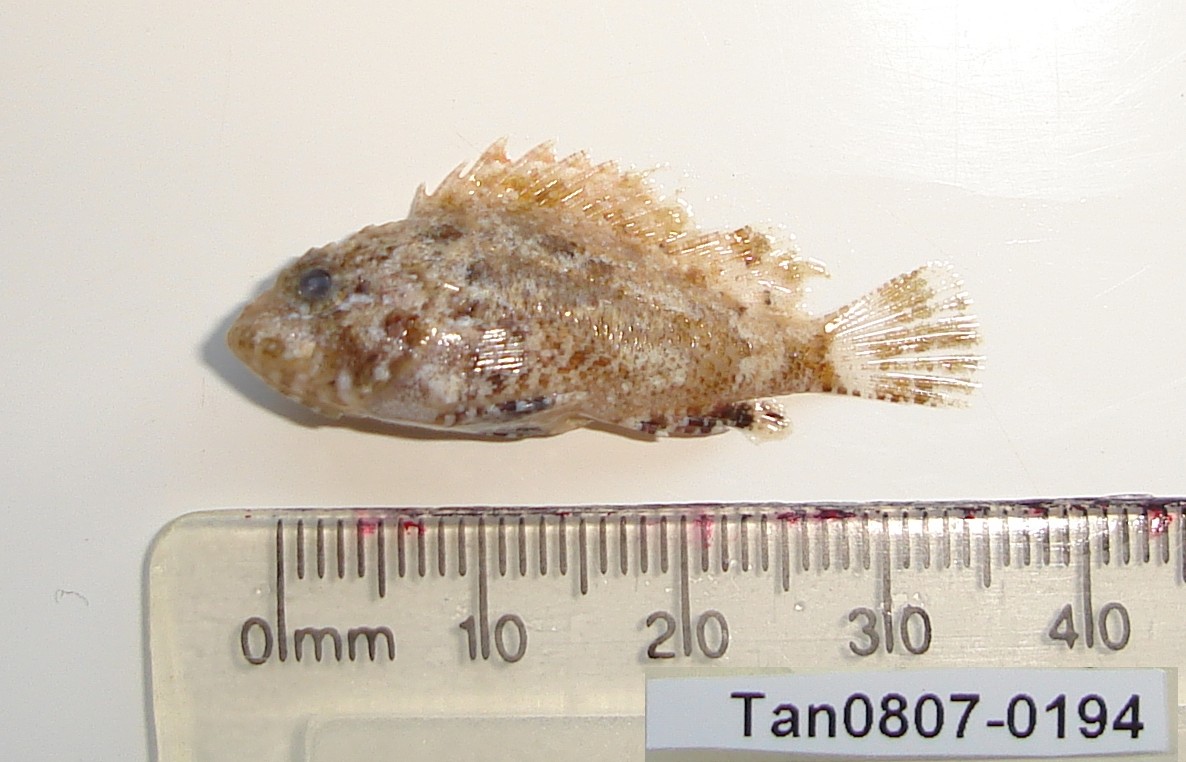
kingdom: Animalia
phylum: Chordata
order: Scorpaeniformes
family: Scorpaenidae
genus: Sebastapistes
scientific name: Sebastapistes strongia
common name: Barchin scorpionfish
